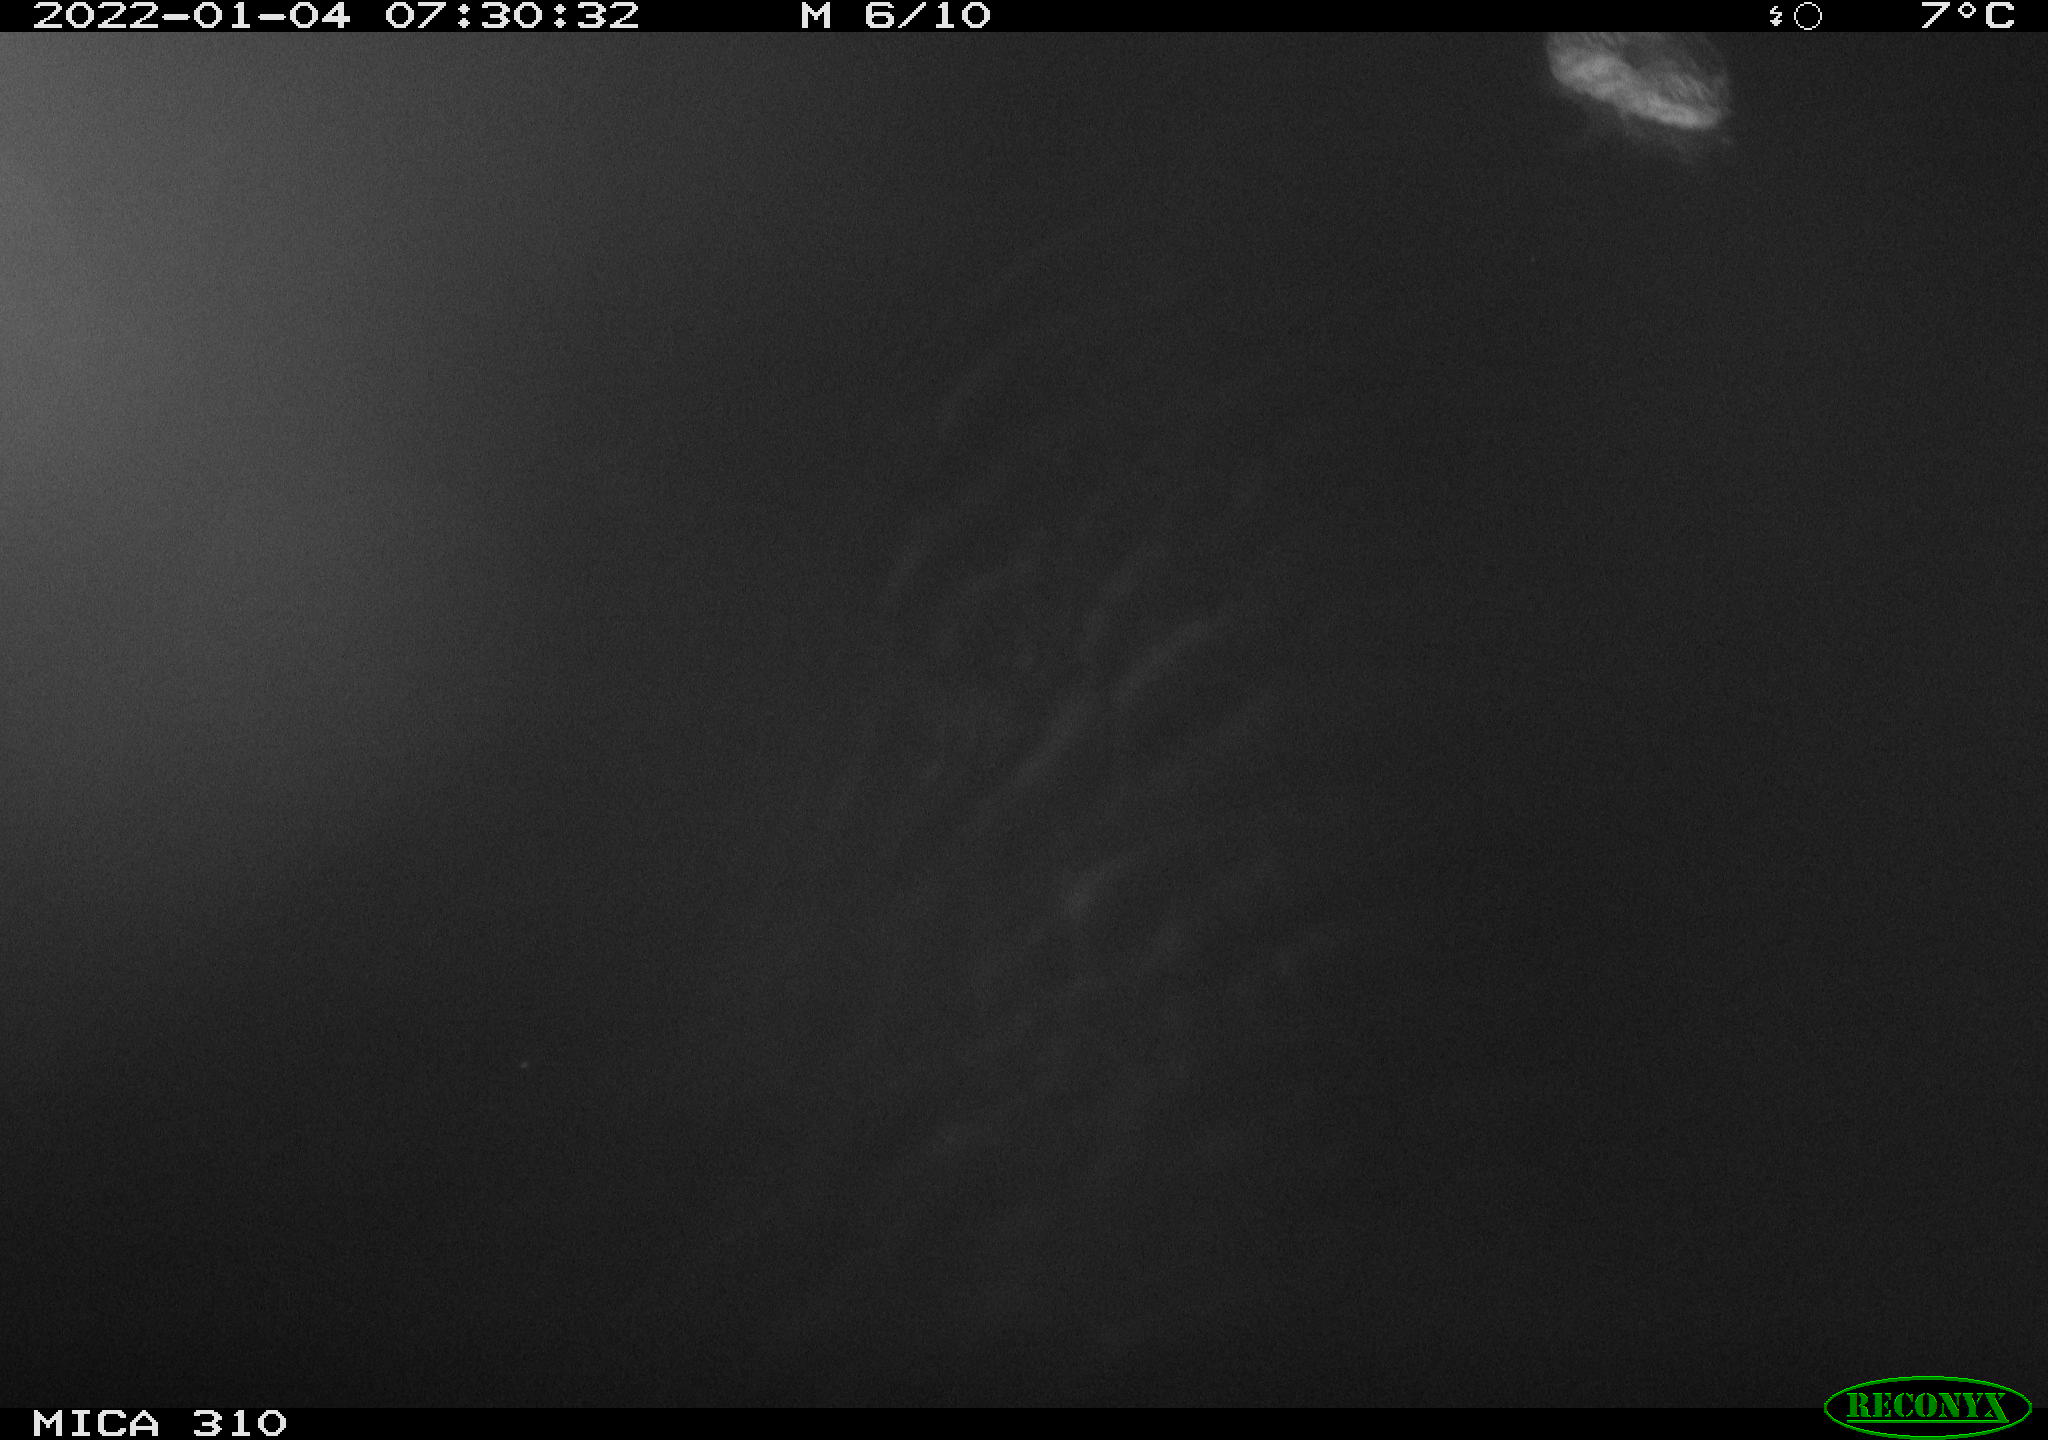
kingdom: Animalia
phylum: Chordata
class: Aves
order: Anseriformes
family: Anatidae
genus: Anas
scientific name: Anas platyrhynchos
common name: Mallard
